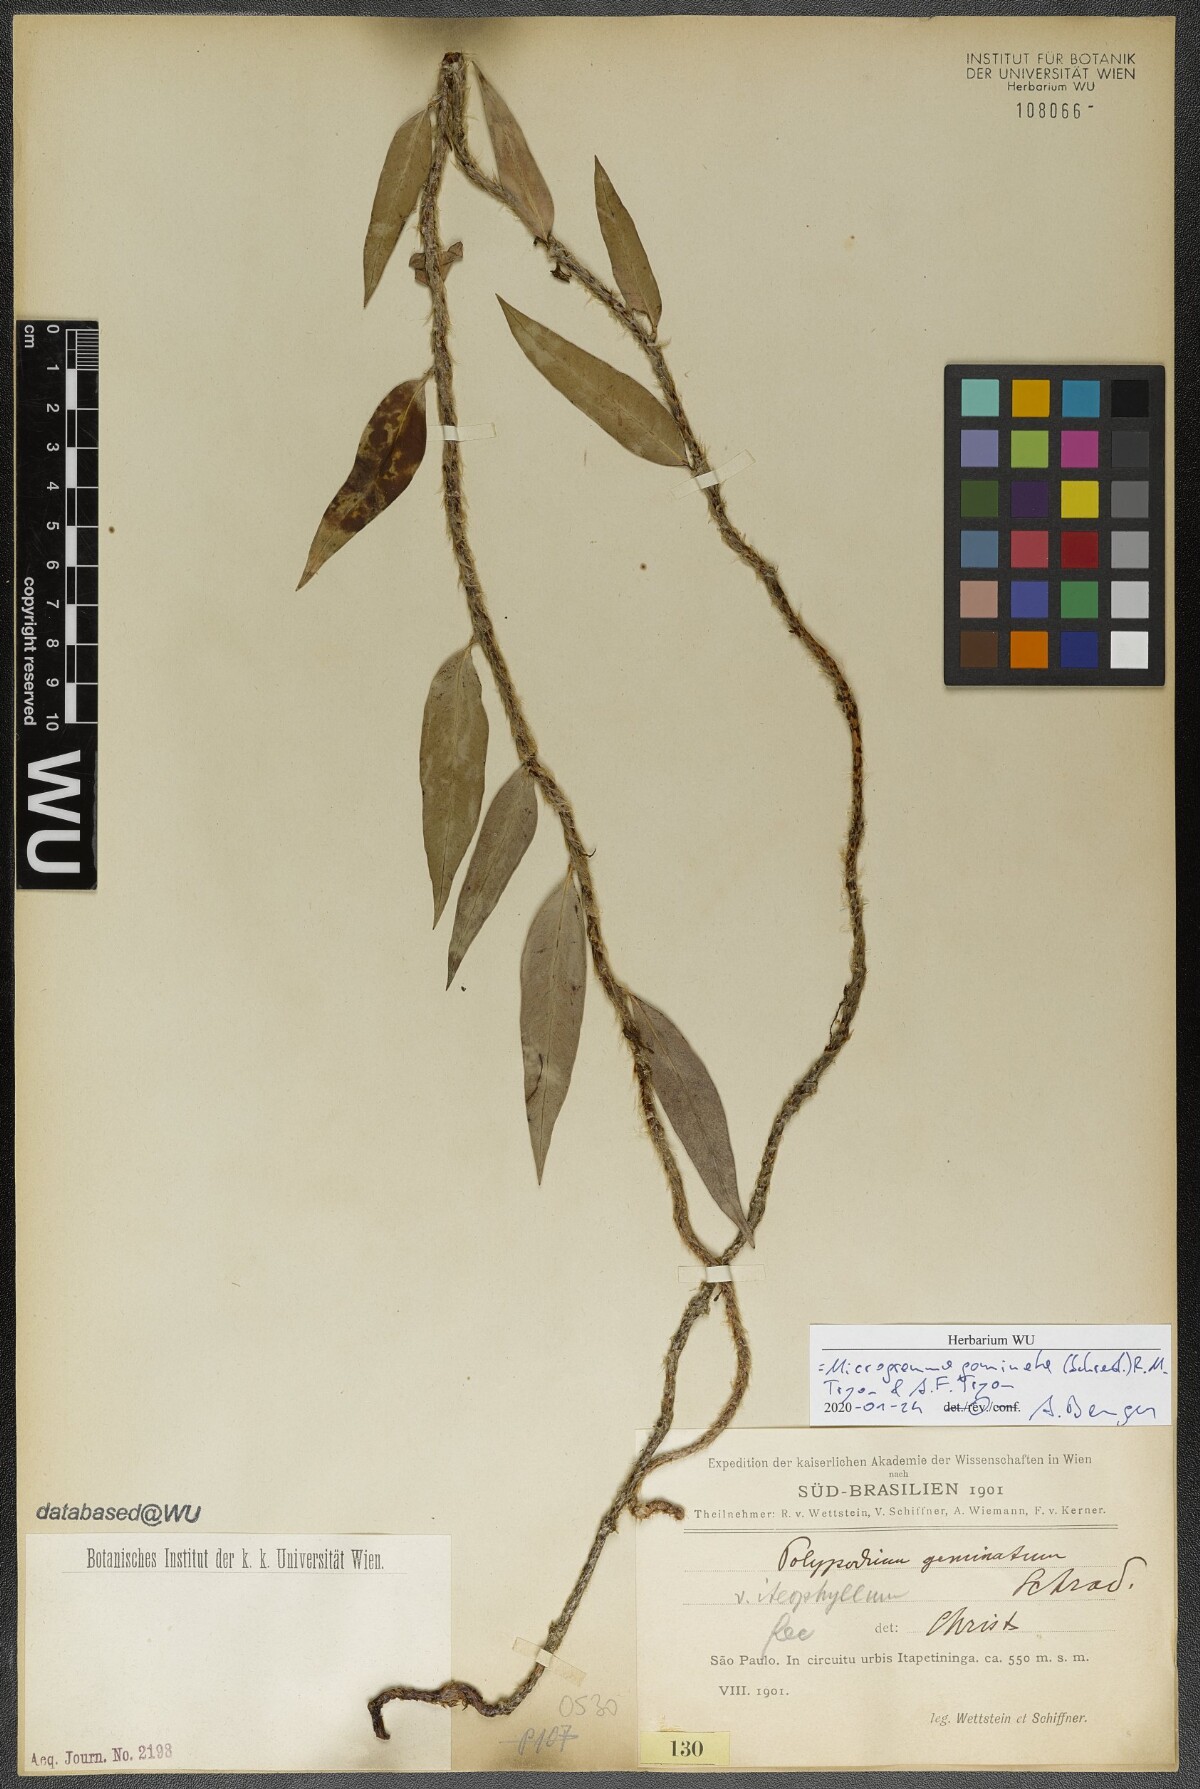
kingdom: Plantae
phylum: Tracheophyta
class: Polypodiopsida
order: Polypodiales
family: Polypodiaceae
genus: Microgramma
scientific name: Microgramma geminata
